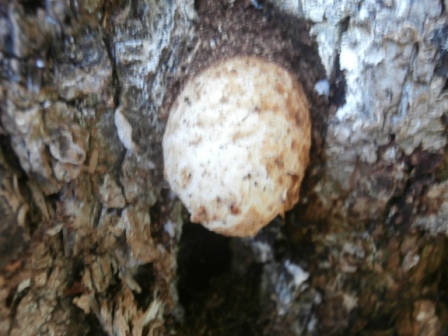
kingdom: Fungi
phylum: Basidiomycota
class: Agaricomycetes
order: Agaricales
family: Pluteaceae
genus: Volvariella
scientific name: Volvariella bombycina
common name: silkehåret posesvamp
